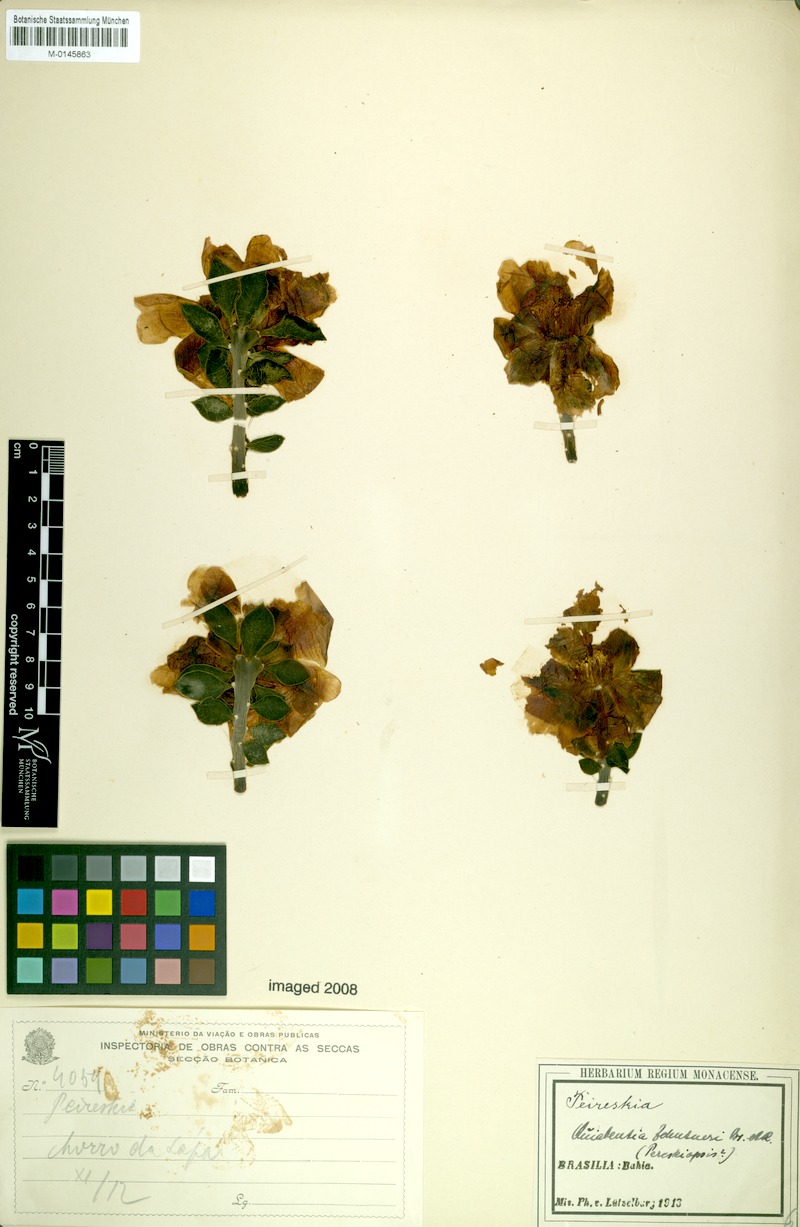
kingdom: Plantae
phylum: Tracheophyta
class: Magnoliopsida
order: Caryophyllales
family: Cactaceae
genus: Quiabentia
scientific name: Quiabentia zehntneri
